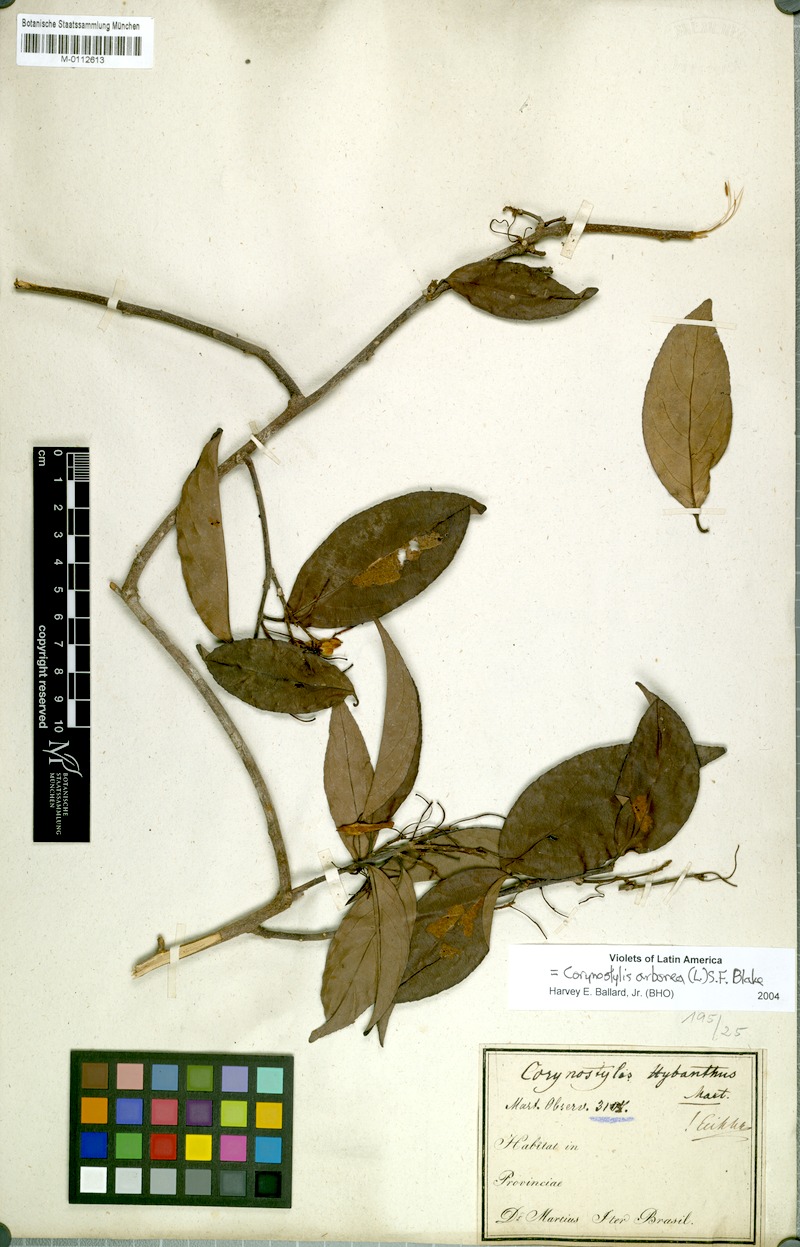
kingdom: Plantae
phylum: Tracheophyta
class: Magnoliopsida
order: Malpighiales
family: Violaceae
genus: Calyptrion
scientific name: Calyptrion arboreum
